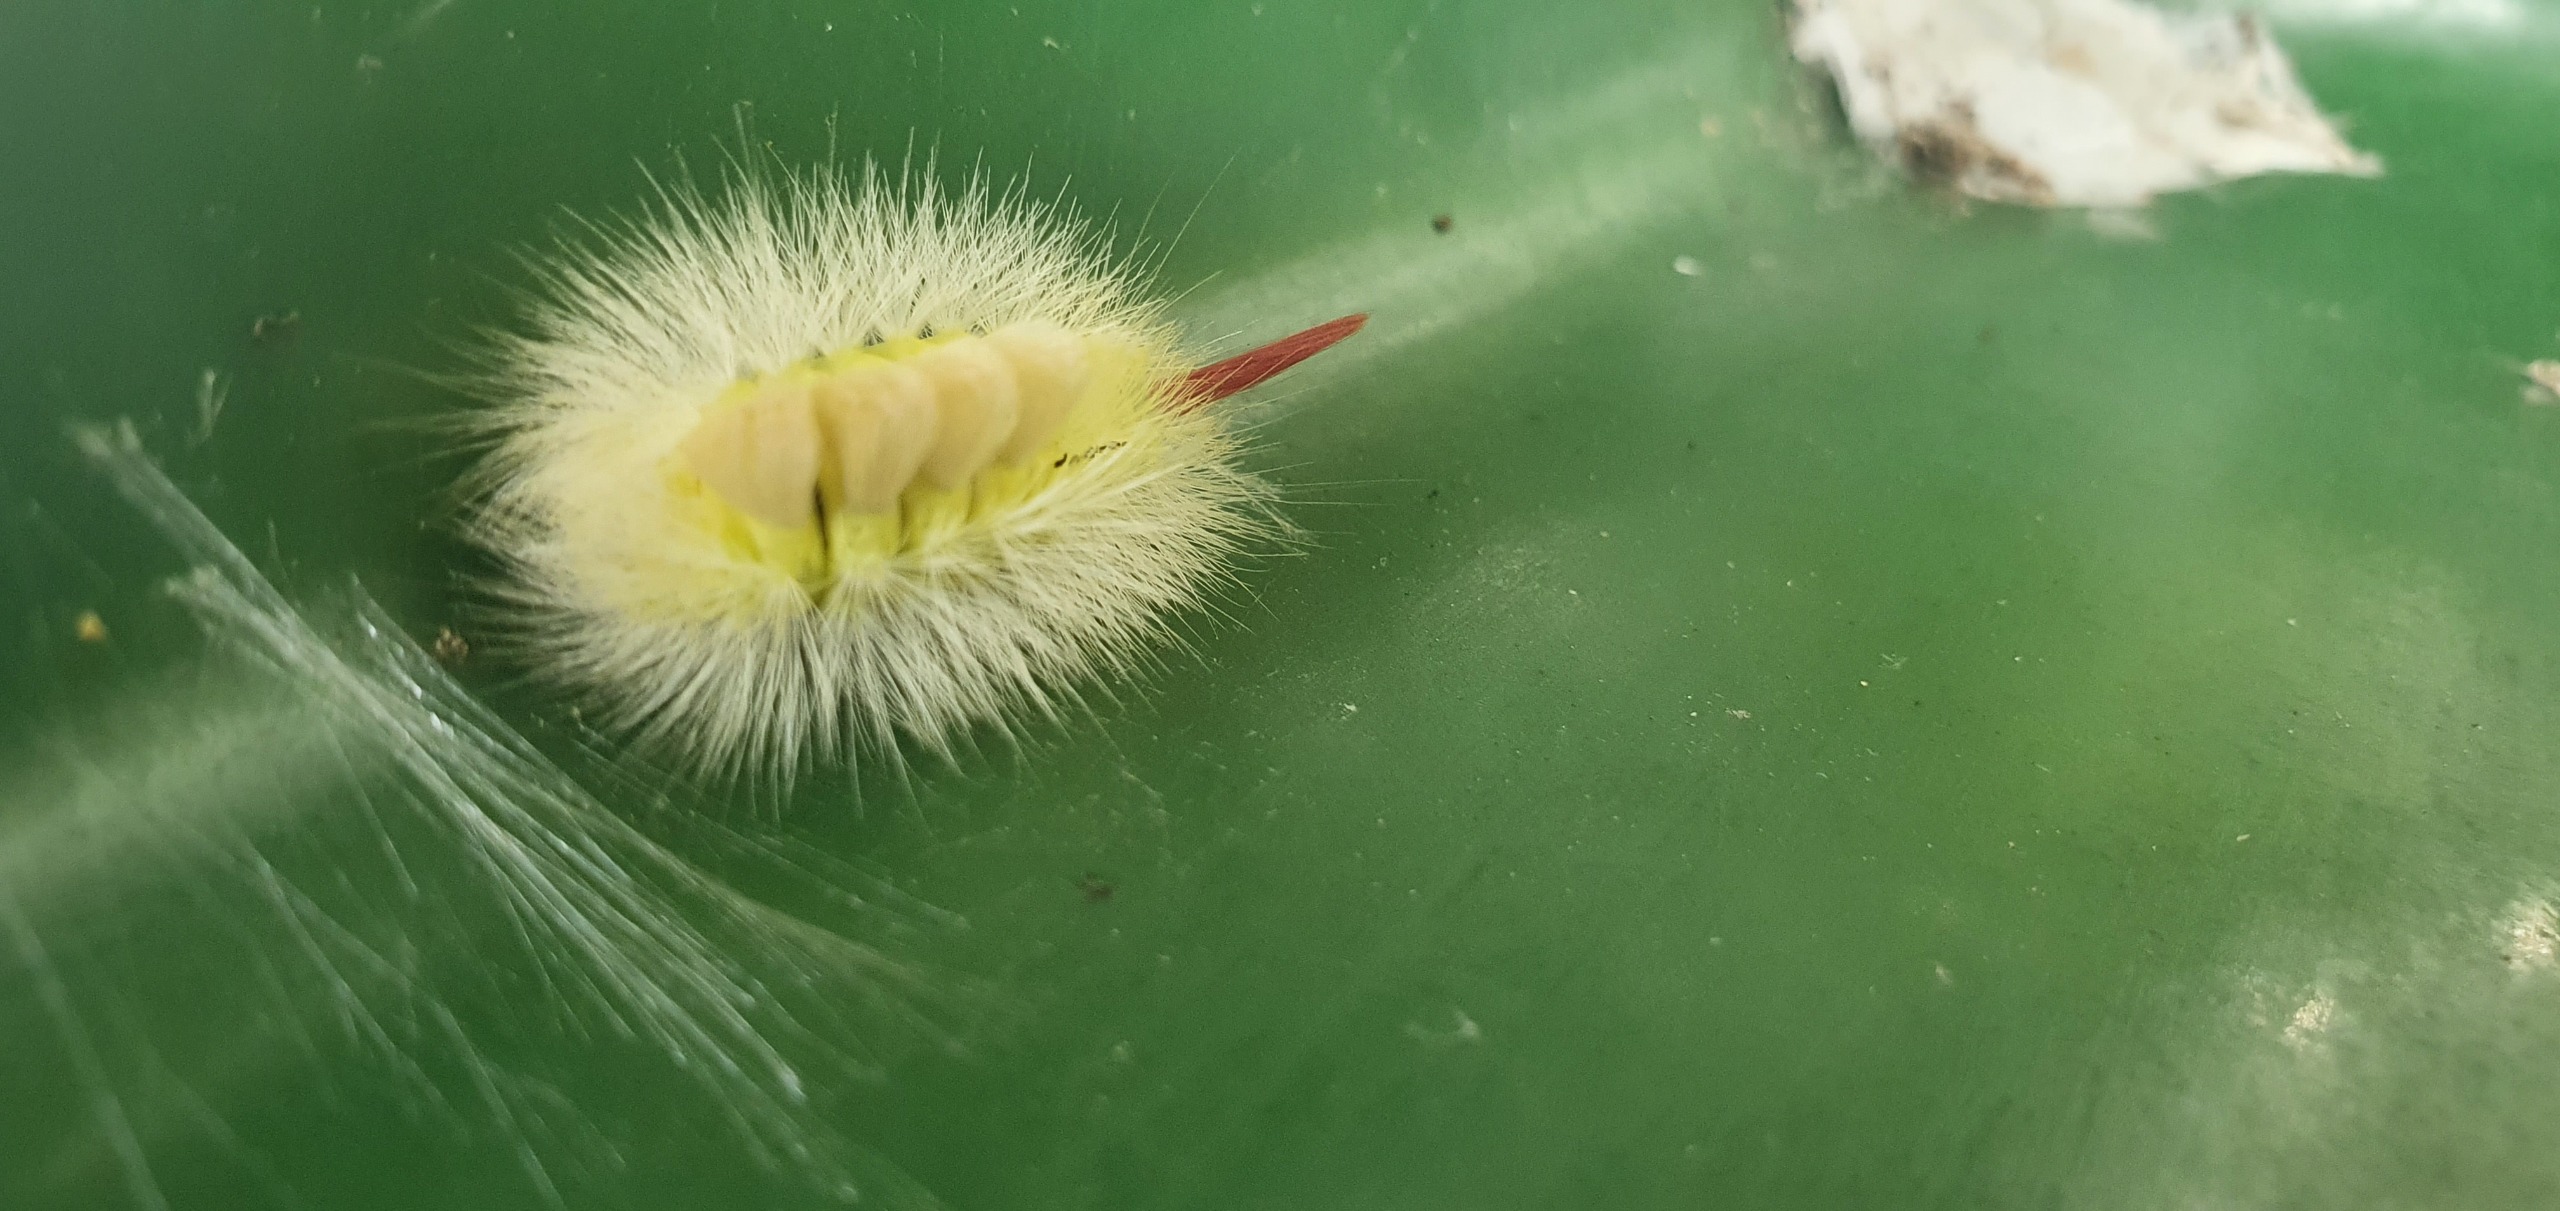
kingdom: Animalia
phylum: Arthropoda
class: Insecta
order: Lepidoptera
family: Erebidae
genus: Calliteara
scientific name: Calliteara pudibunda
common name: Bøgenonne
